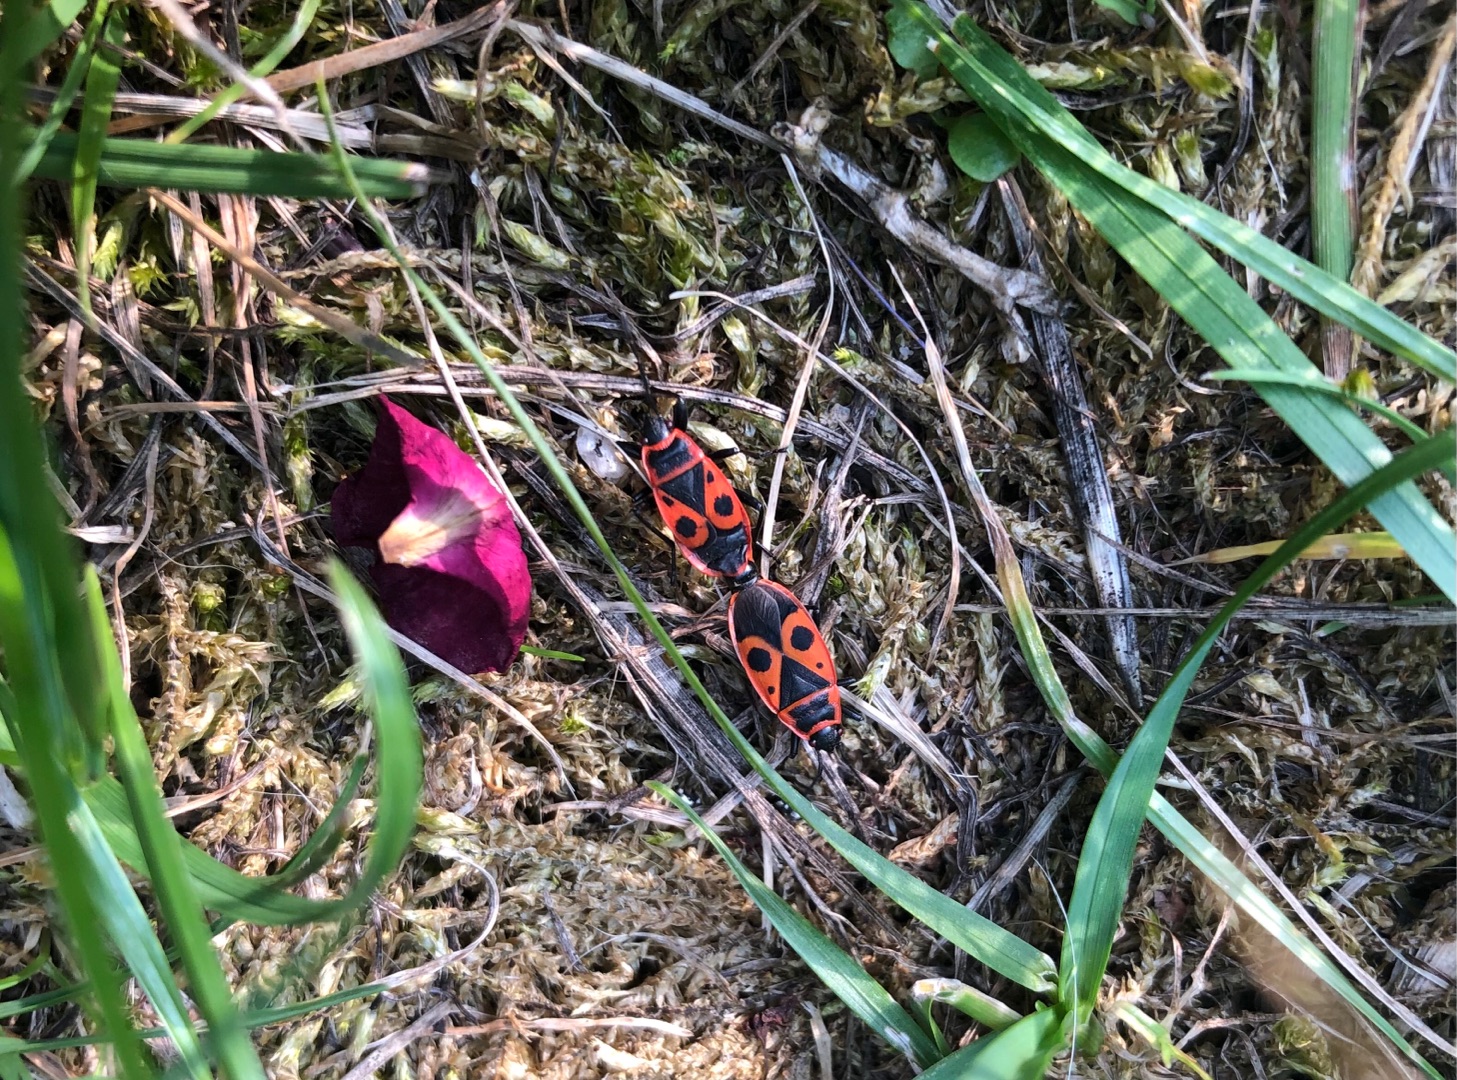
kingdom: Animalia
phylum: Arthropoda
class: Insecta
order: Hemiptera
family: Pyrrhocoridae
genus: Pyrrhocoris
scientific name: Pyrrhocoris apterus
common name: Ildtæge
